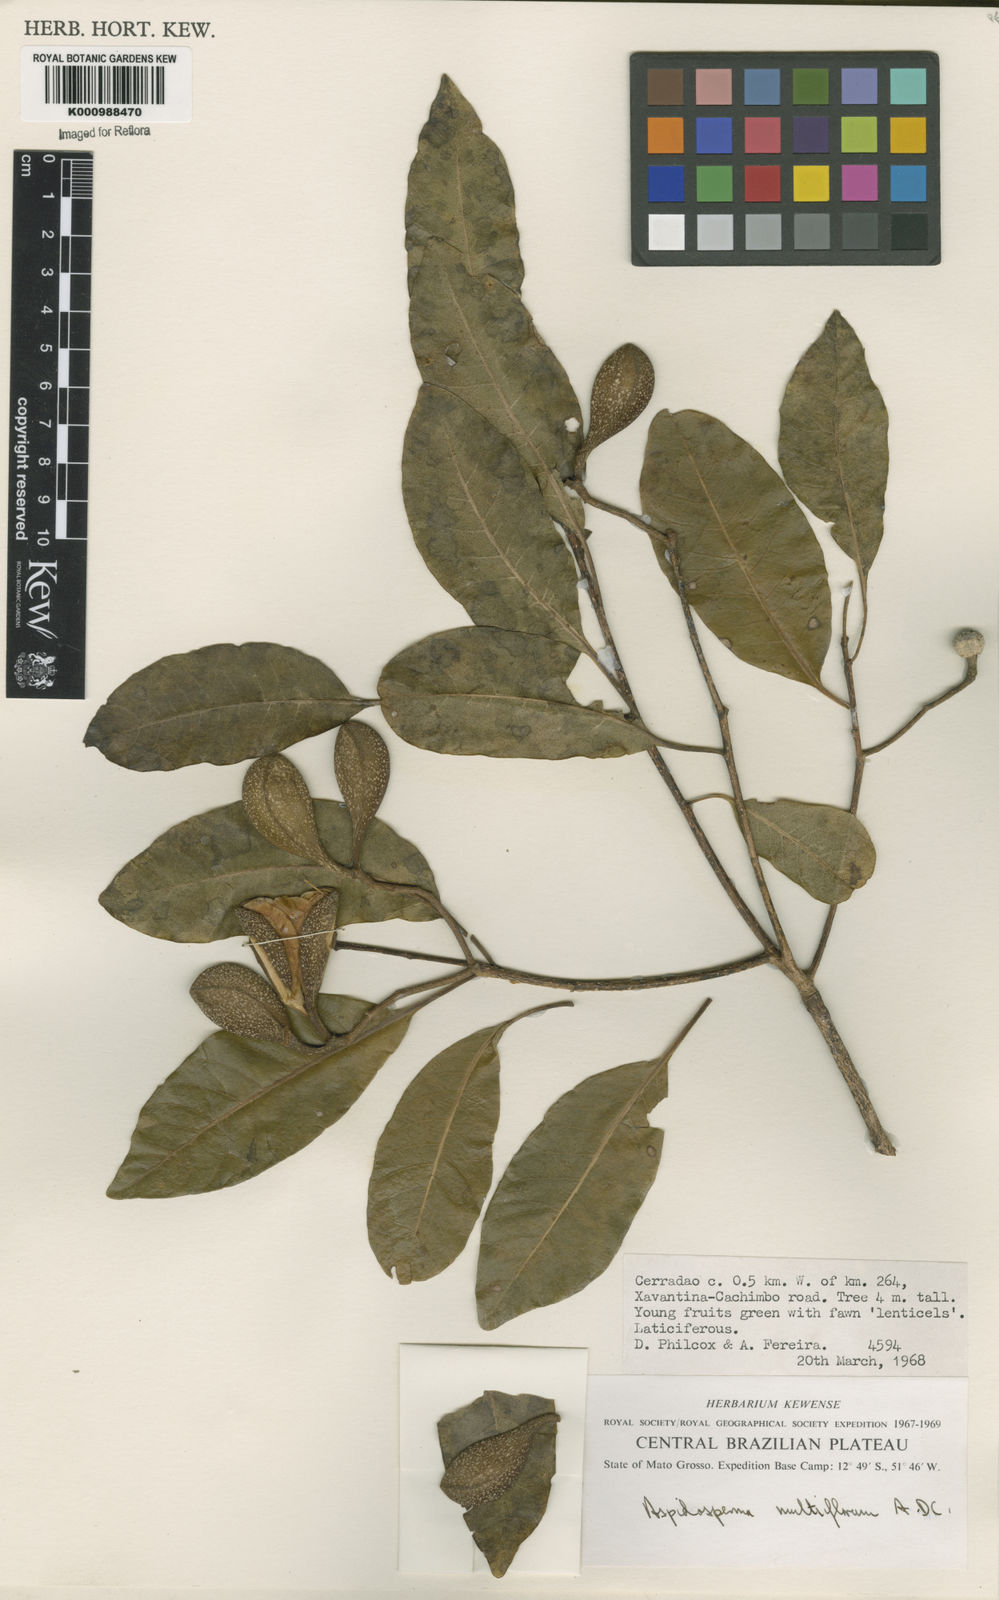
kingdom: Plantae
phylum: Tracheophyta
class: Magnoliopsida
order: Gentianales
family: Apocynaceae
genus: Aspidosperma
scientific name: Aspidosperma multiflorum
